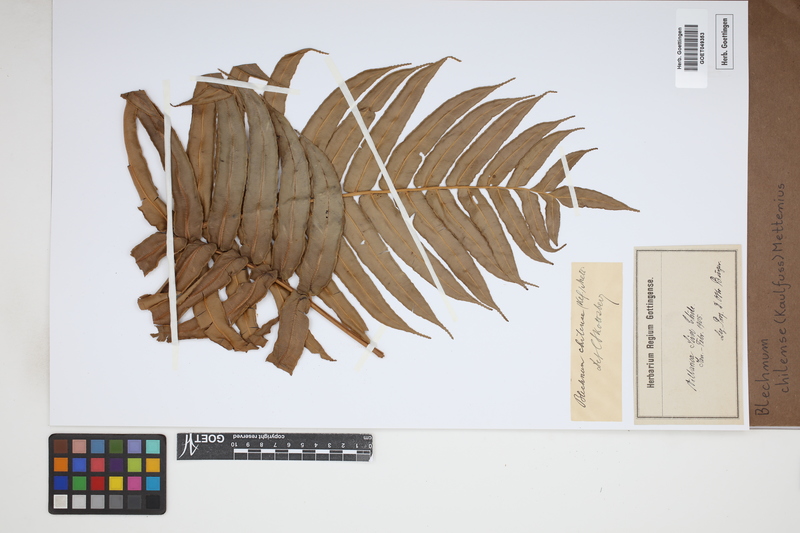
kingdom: Plantae
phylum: Tracheophyta
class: Polypodiopsida
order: Polypodiales
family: Blechnaceae
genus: Parablechnum
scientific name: Parablechnum chilense
